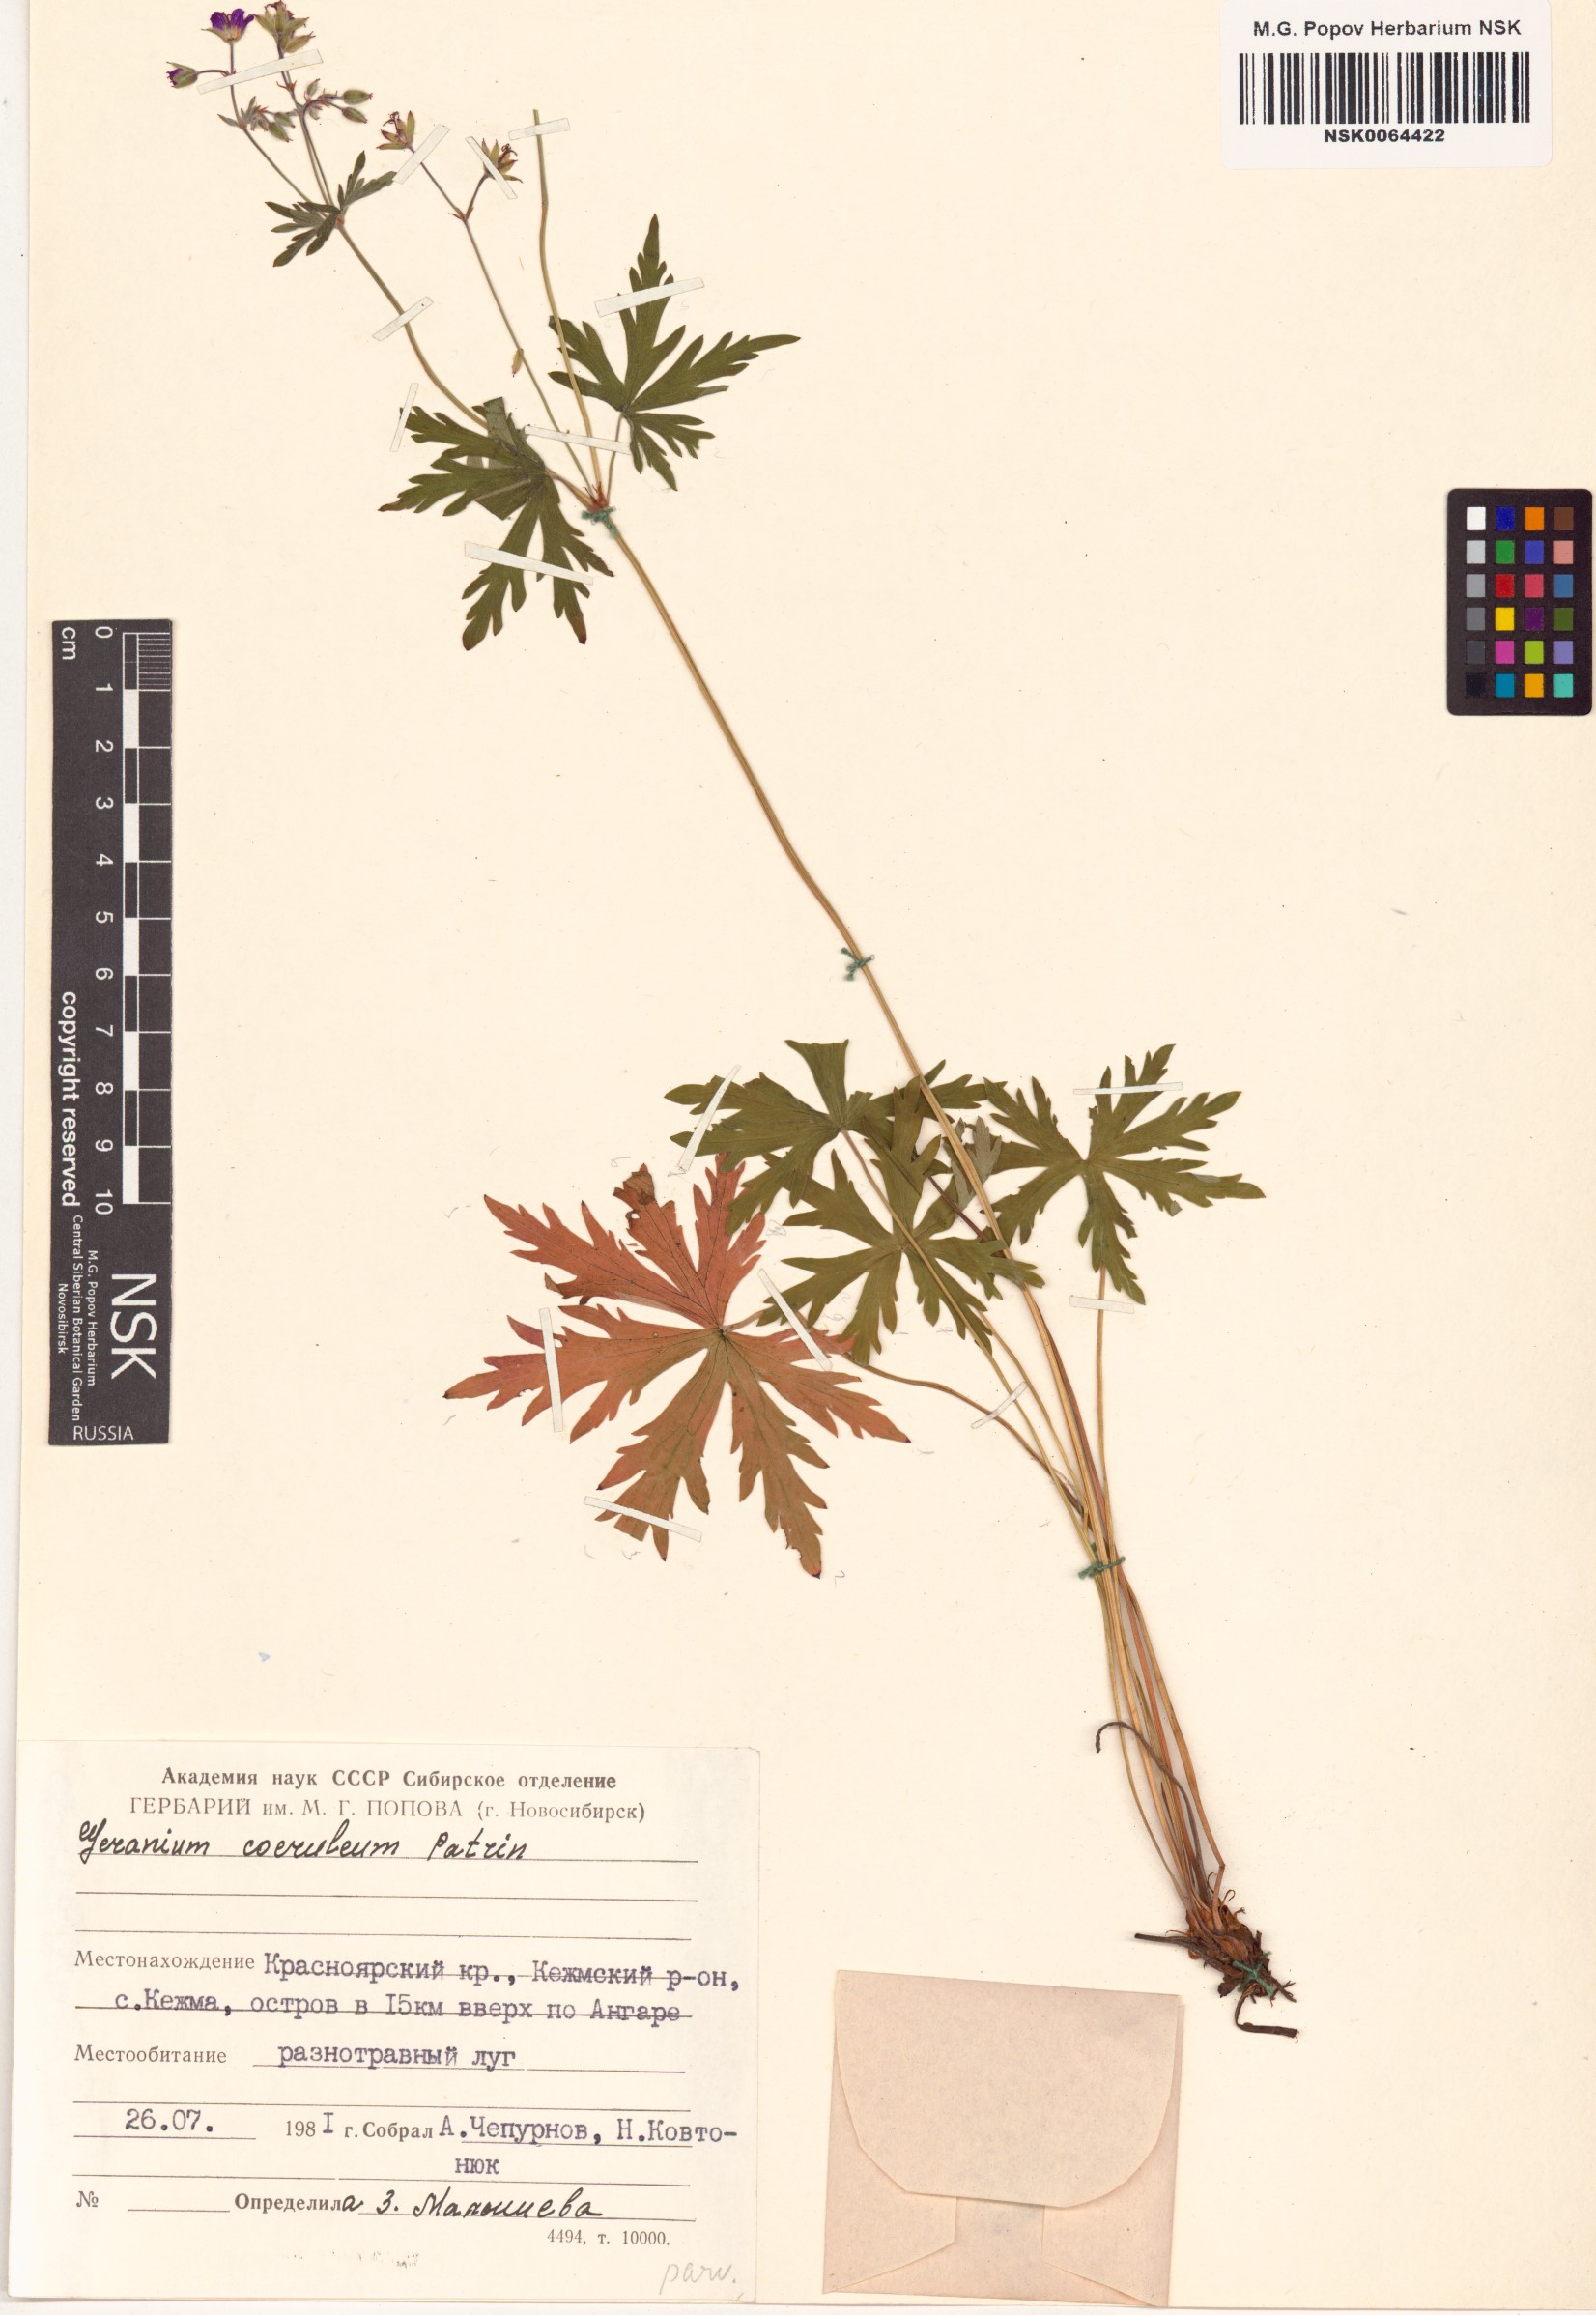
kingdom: Plantae
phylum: Tracheophyta
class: Magnoliopsida
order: Geraniales
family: Geraniaceae
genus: Geranium
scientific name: Geranium pseudosibiricum
